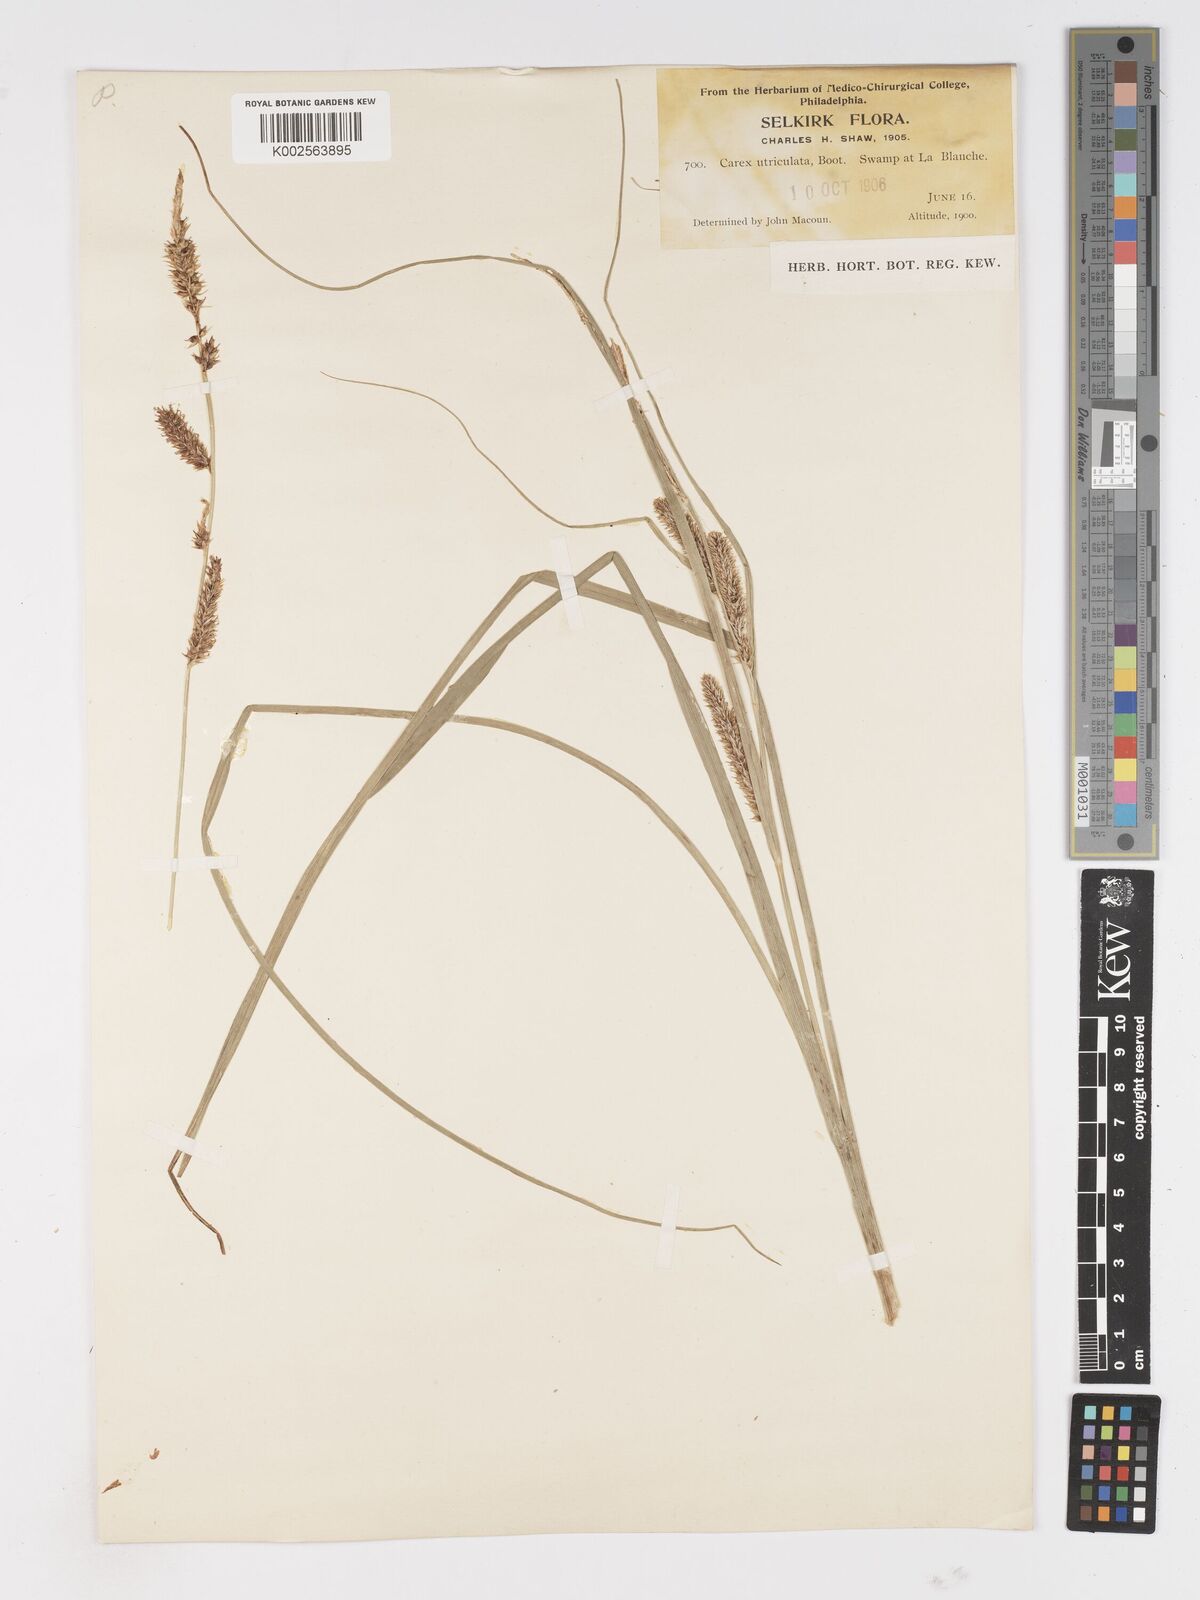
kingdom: Plantae
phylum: Tracheophyta
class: Liliopsida
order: Poales
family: Cyperaceae
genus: Carex
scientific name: Carex rostrata
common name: Bottle sedge
